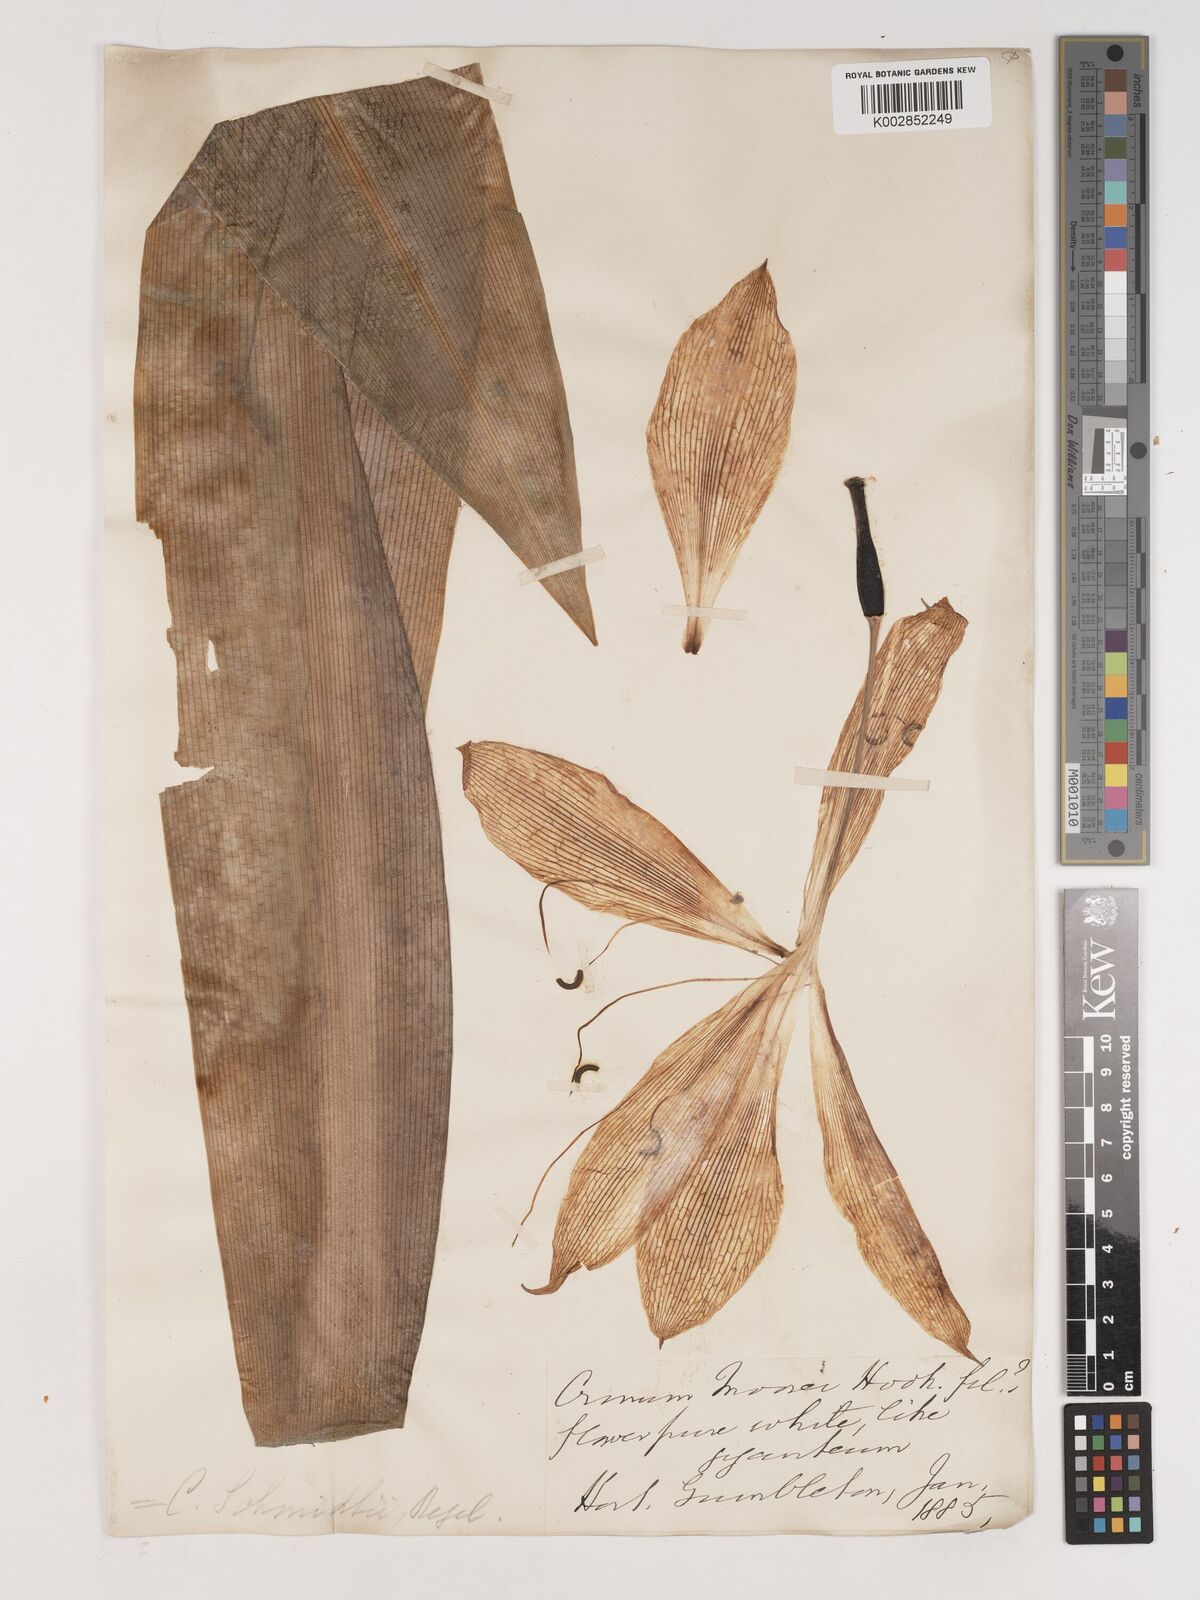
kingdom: Plantae
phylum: Tracheophyta
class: Liliopsida
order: Asparagales
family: Amaryllidaceae
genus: Crinum
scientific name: Crinum moorei
